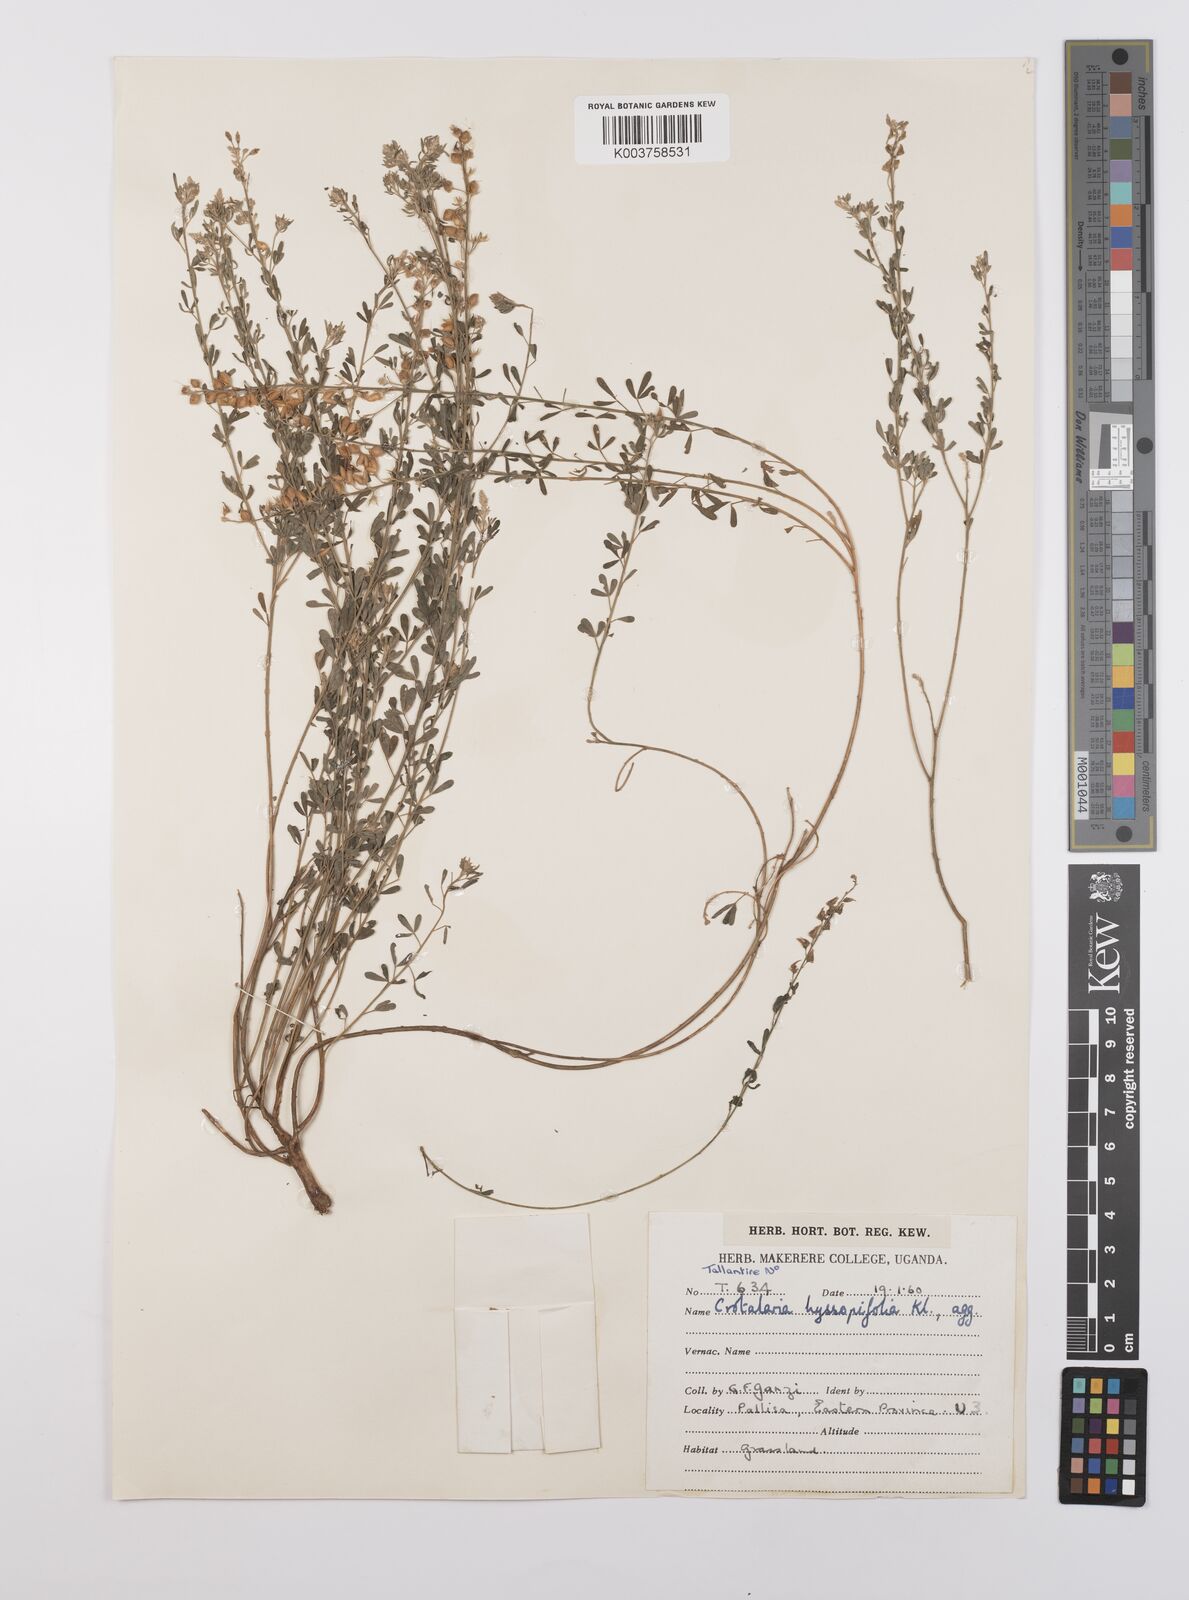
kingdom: Plantae
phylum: Tracheophyta
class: Magnoliopsida
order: Fabales
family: Fabaceae
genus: Crotalaria
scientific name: Crotalaria hyssopifolia
